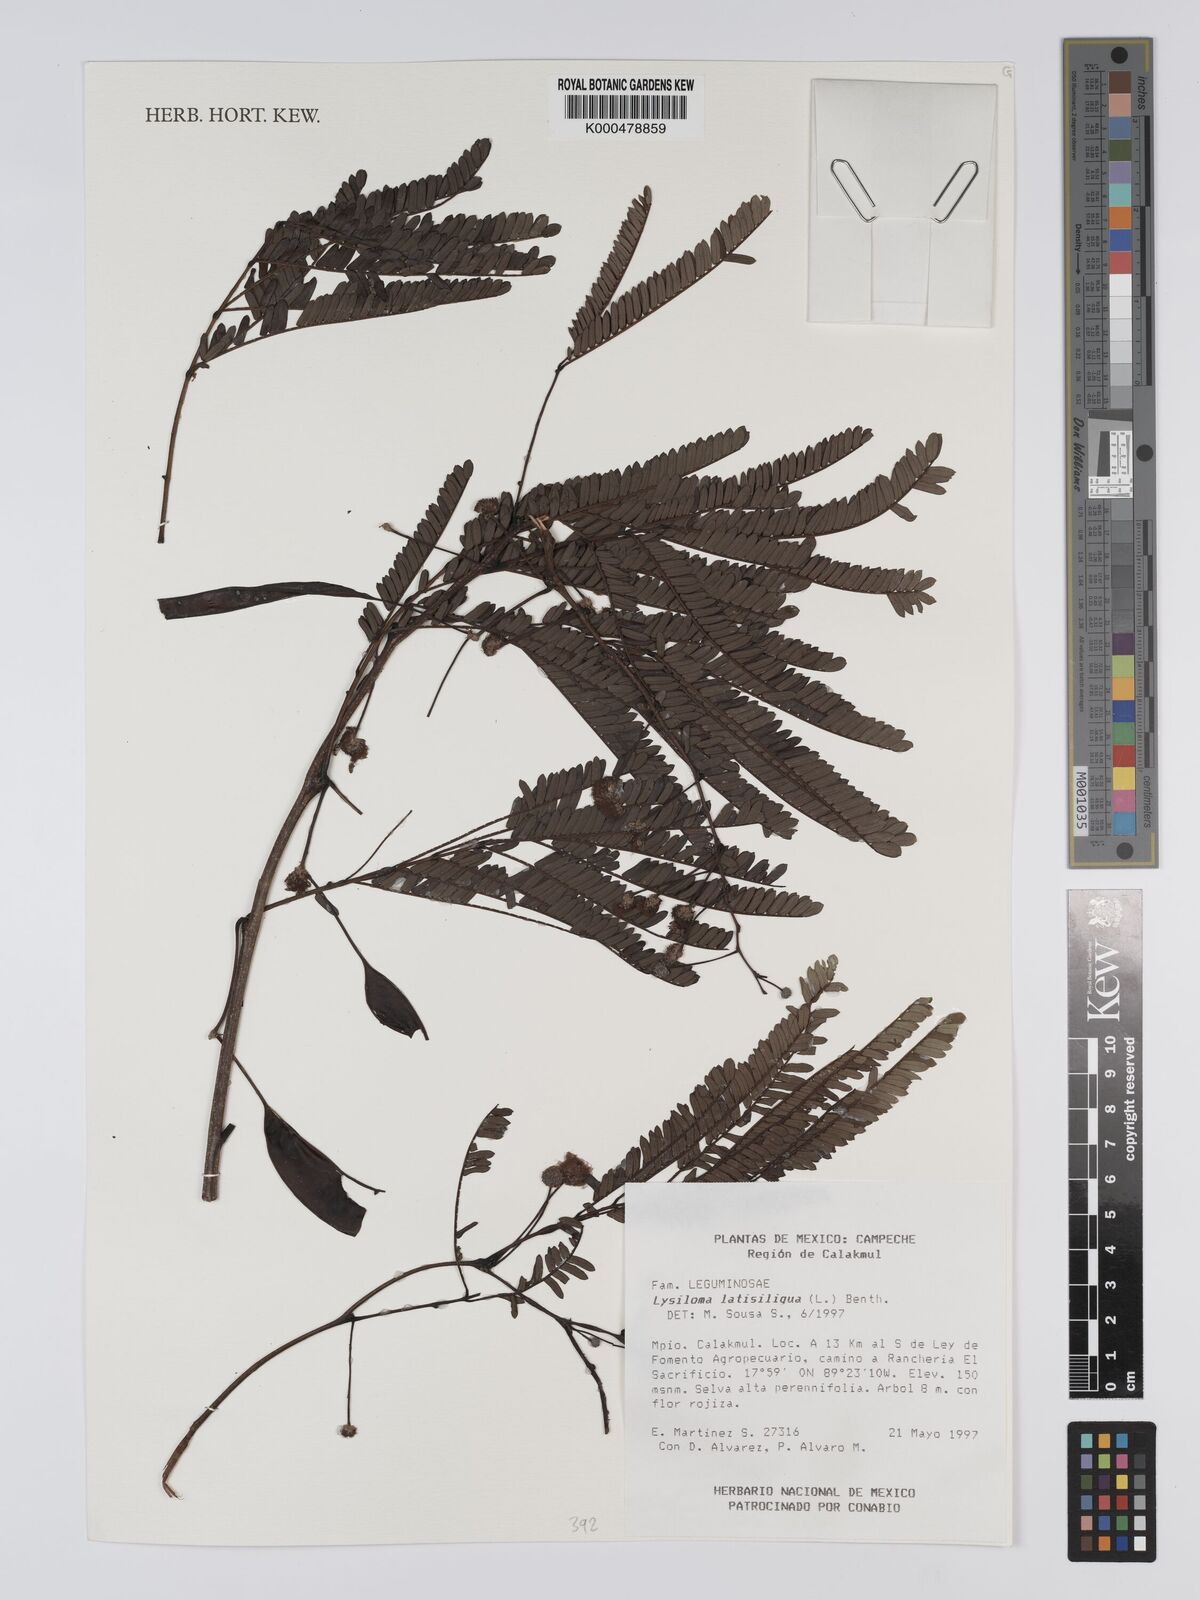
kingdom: Plantae
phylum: Tracheophyta
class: Magnoliopsida
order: Fabales
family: Fabaceae
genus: Lysiloma
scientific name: Lysiloma latisiliquum
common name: Wild tamarind
